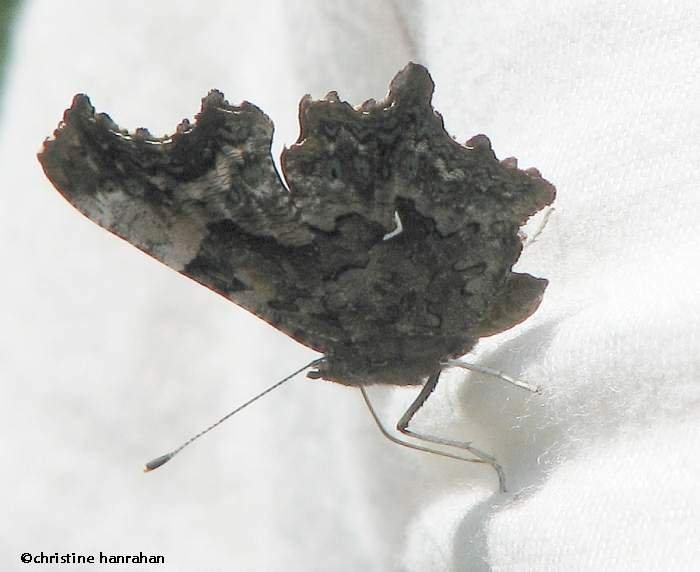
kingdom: Animalia
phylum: Arthropoda
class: Insecta
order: Lepidoptera
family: Nymphalidae
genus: Polygonia
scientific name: Polygonia faunus
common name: Green Comma
